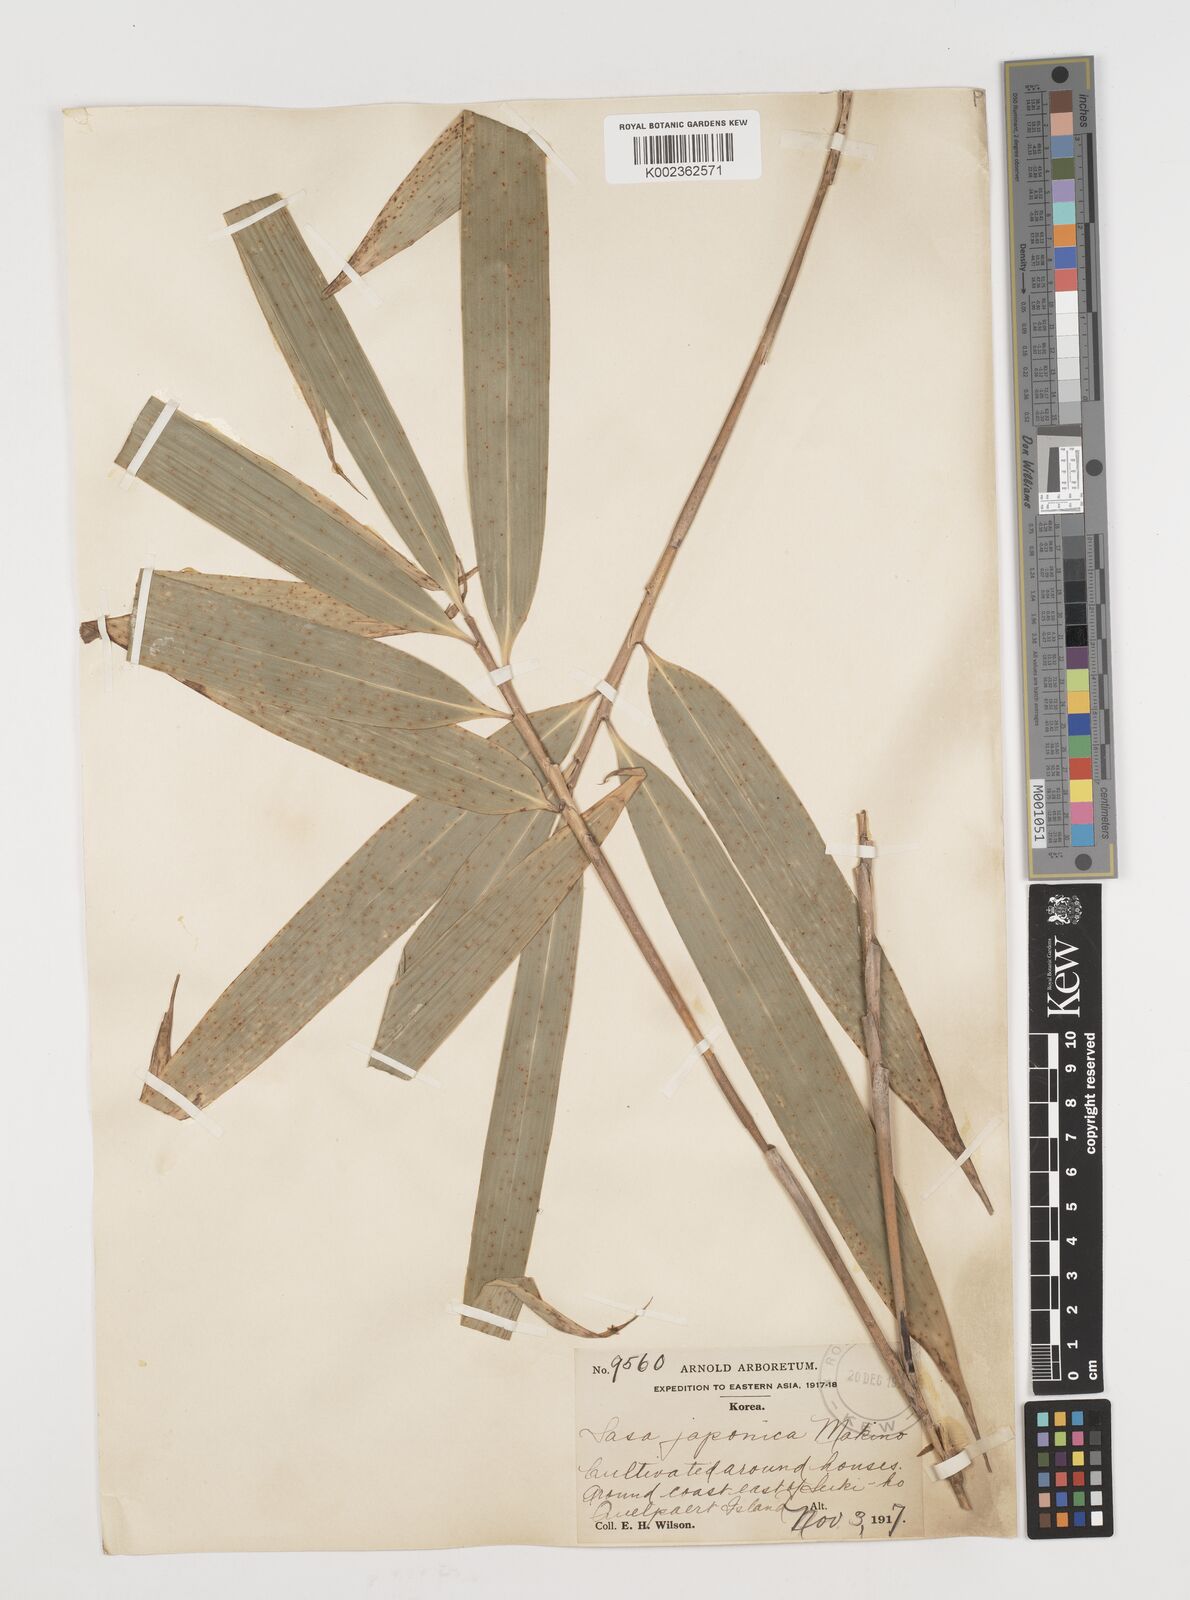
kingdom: Plantae
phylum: Tracheophyta
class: Liliopsida
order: Poales
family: Poaceae
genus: Pseudosasa
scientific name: Pseudosasa japonica
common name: Arrow bamboo
